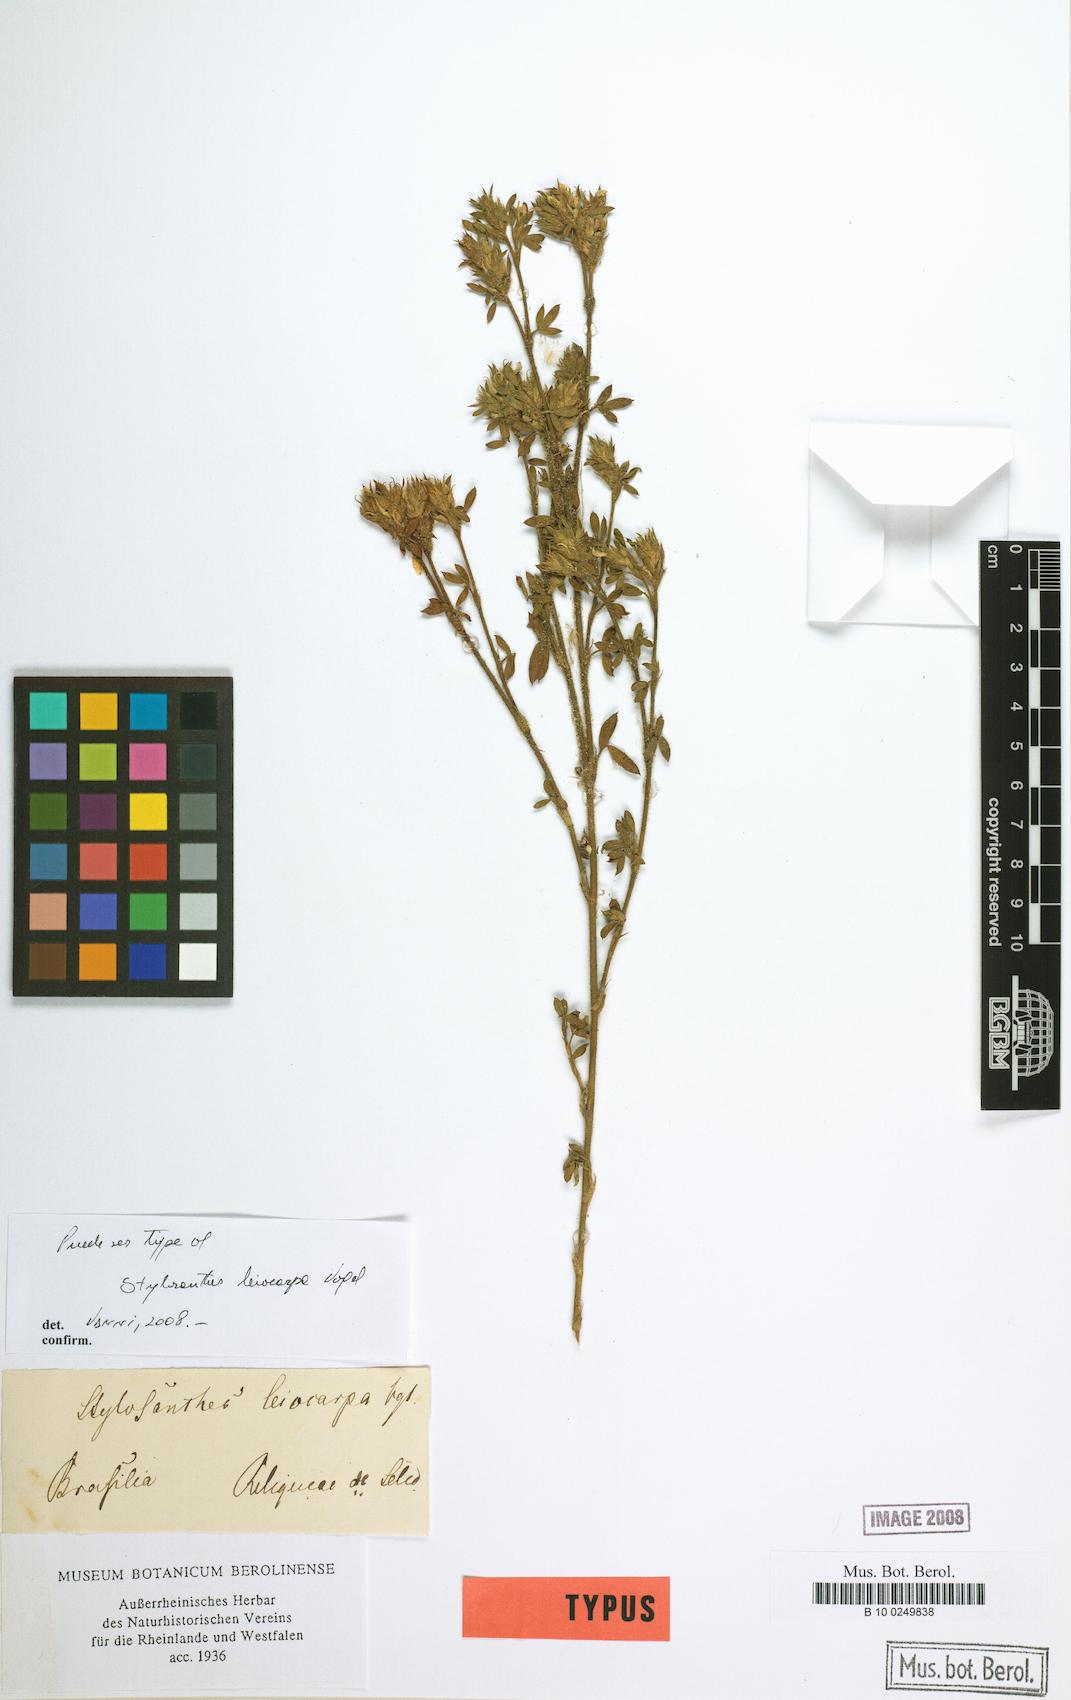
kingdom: Plantae
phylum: Tracheophyta
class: Magnoliopsida
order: Fabales
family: Fabaceae
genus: Stylosanthes
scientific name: Stylosanthes leiocarpa
